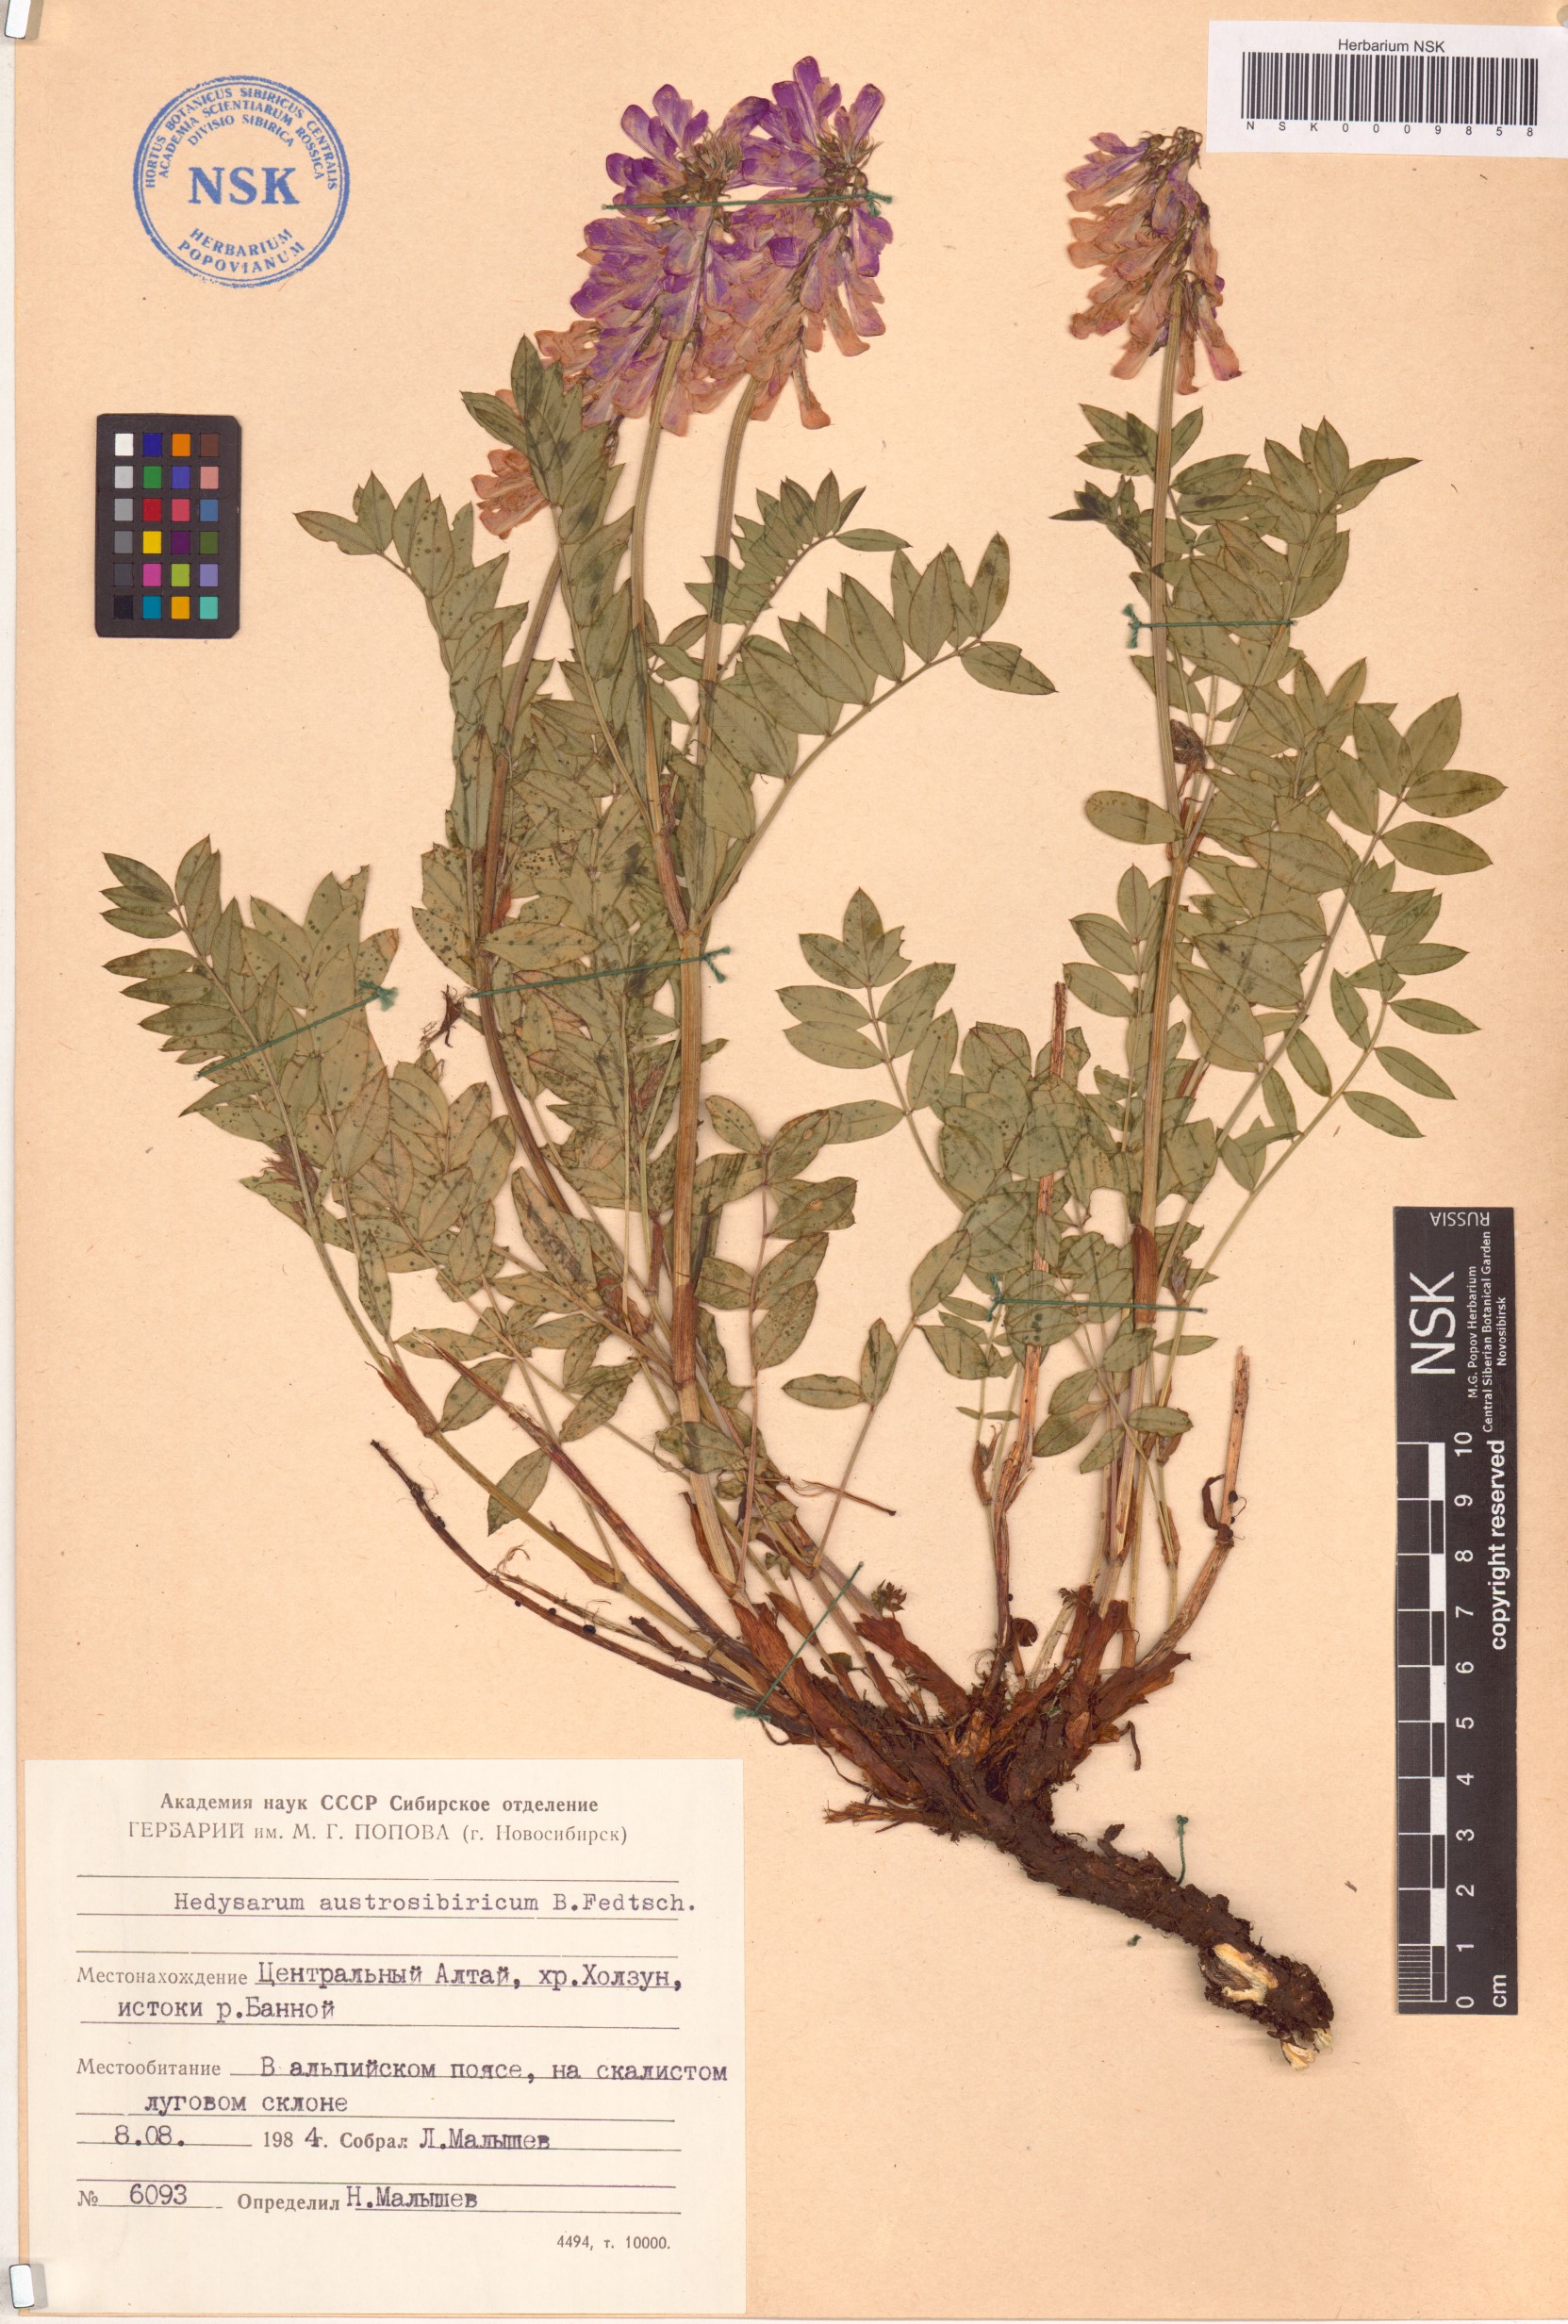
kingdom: Plantae
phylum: Tracheophyta
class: Magnoliopsida
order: Fabales
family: Fabaceae
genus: Hedysarum
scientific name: Hedysarum neglectum
